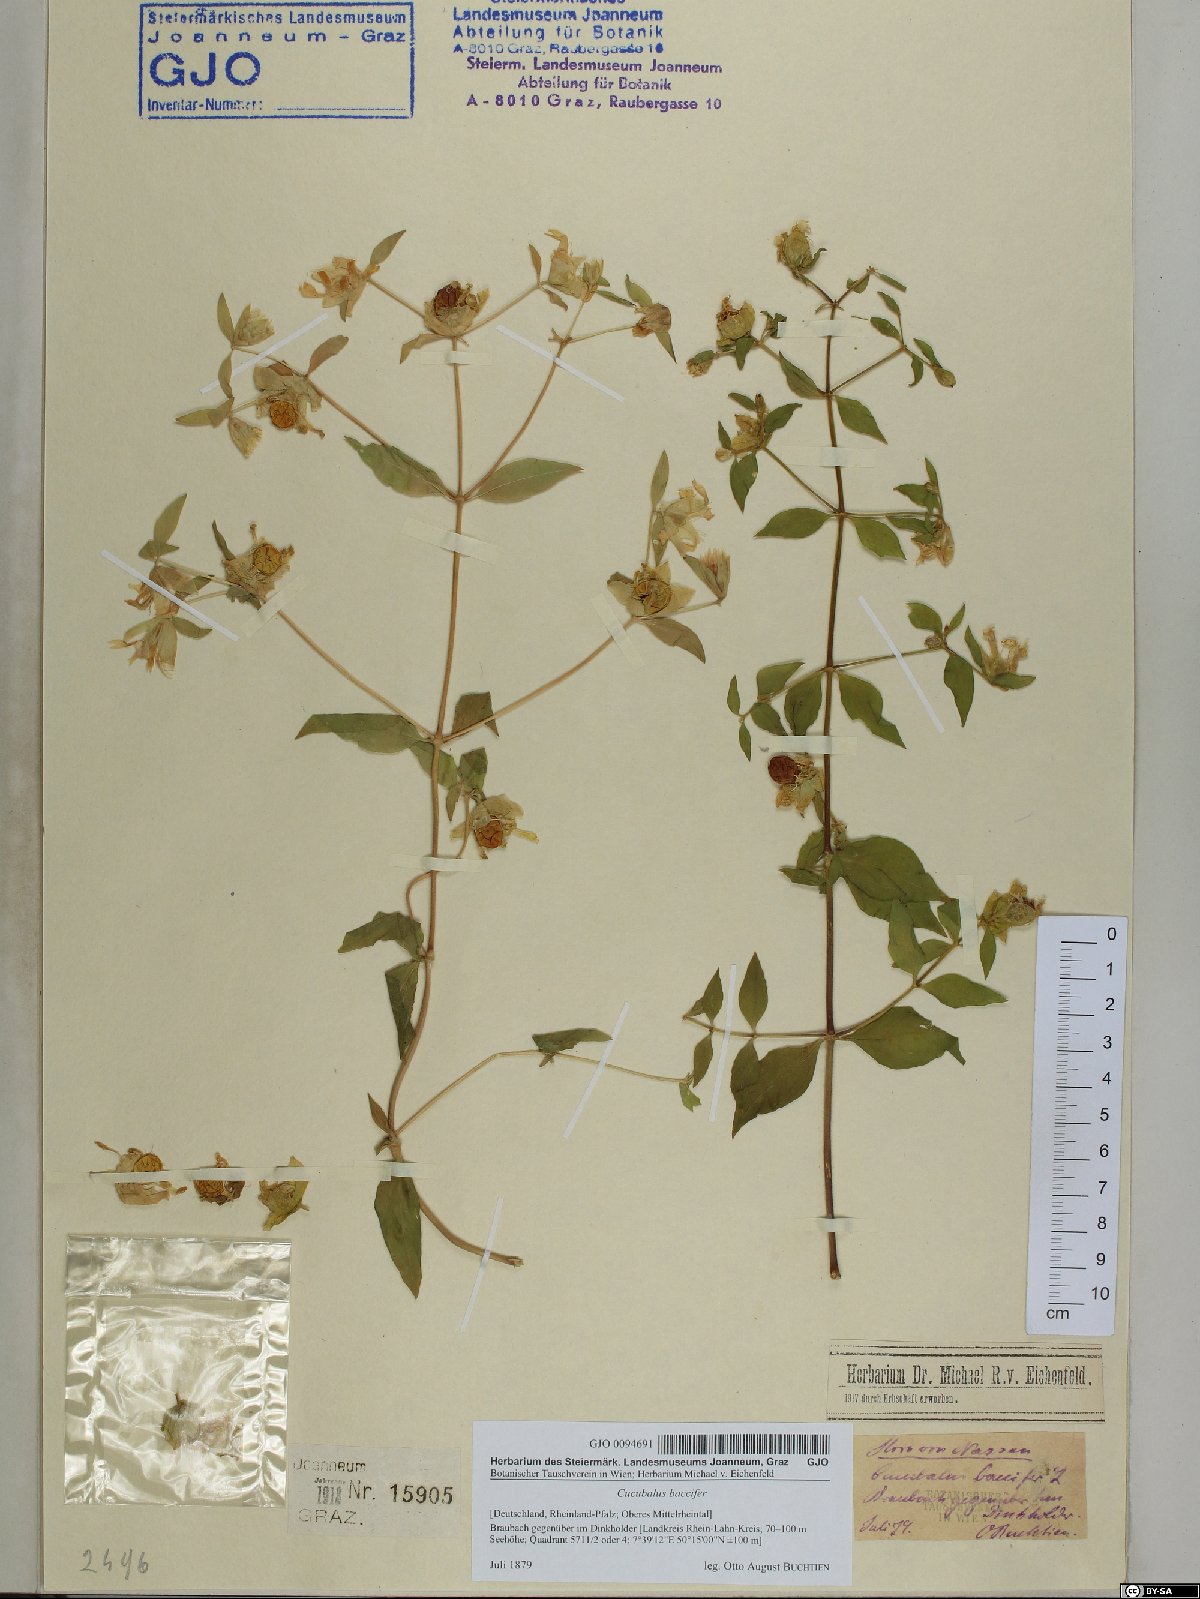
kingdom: Plantae
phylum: Tracheophyta
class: Magnoliopsida
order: Caryophyllales
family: Caryophyllaceae
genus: Silene
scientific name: Silene baccifera
